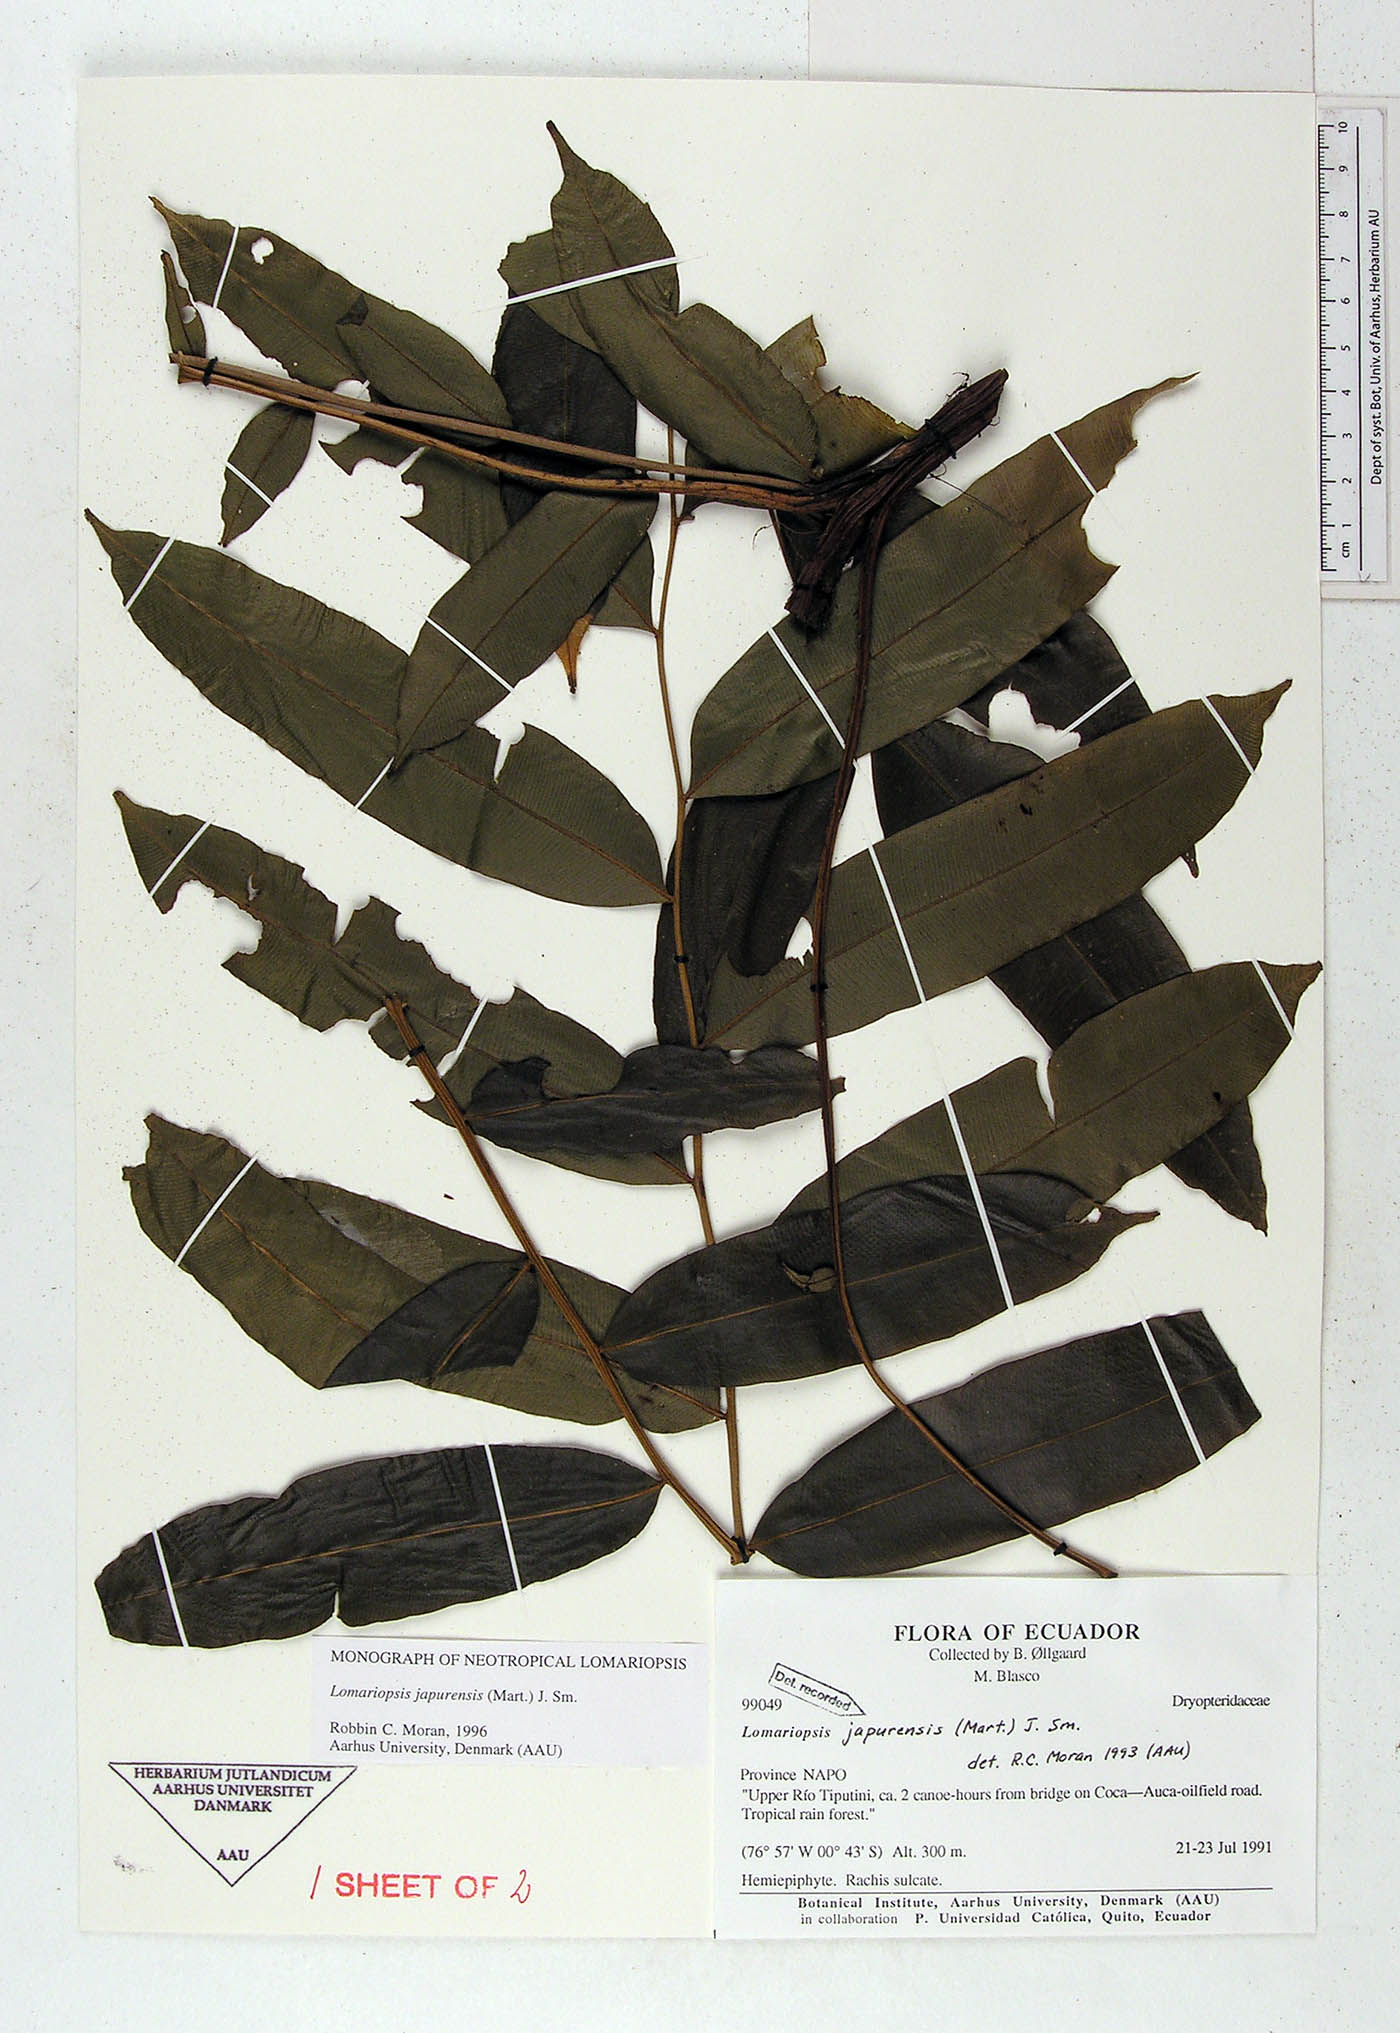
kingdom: Plantae
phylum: Tracheophyta
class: Polypodiopsida
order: Polypodiales
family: Lomariopsidaceae
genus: Lomariopsis
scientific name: Lomariopsis japurensis
